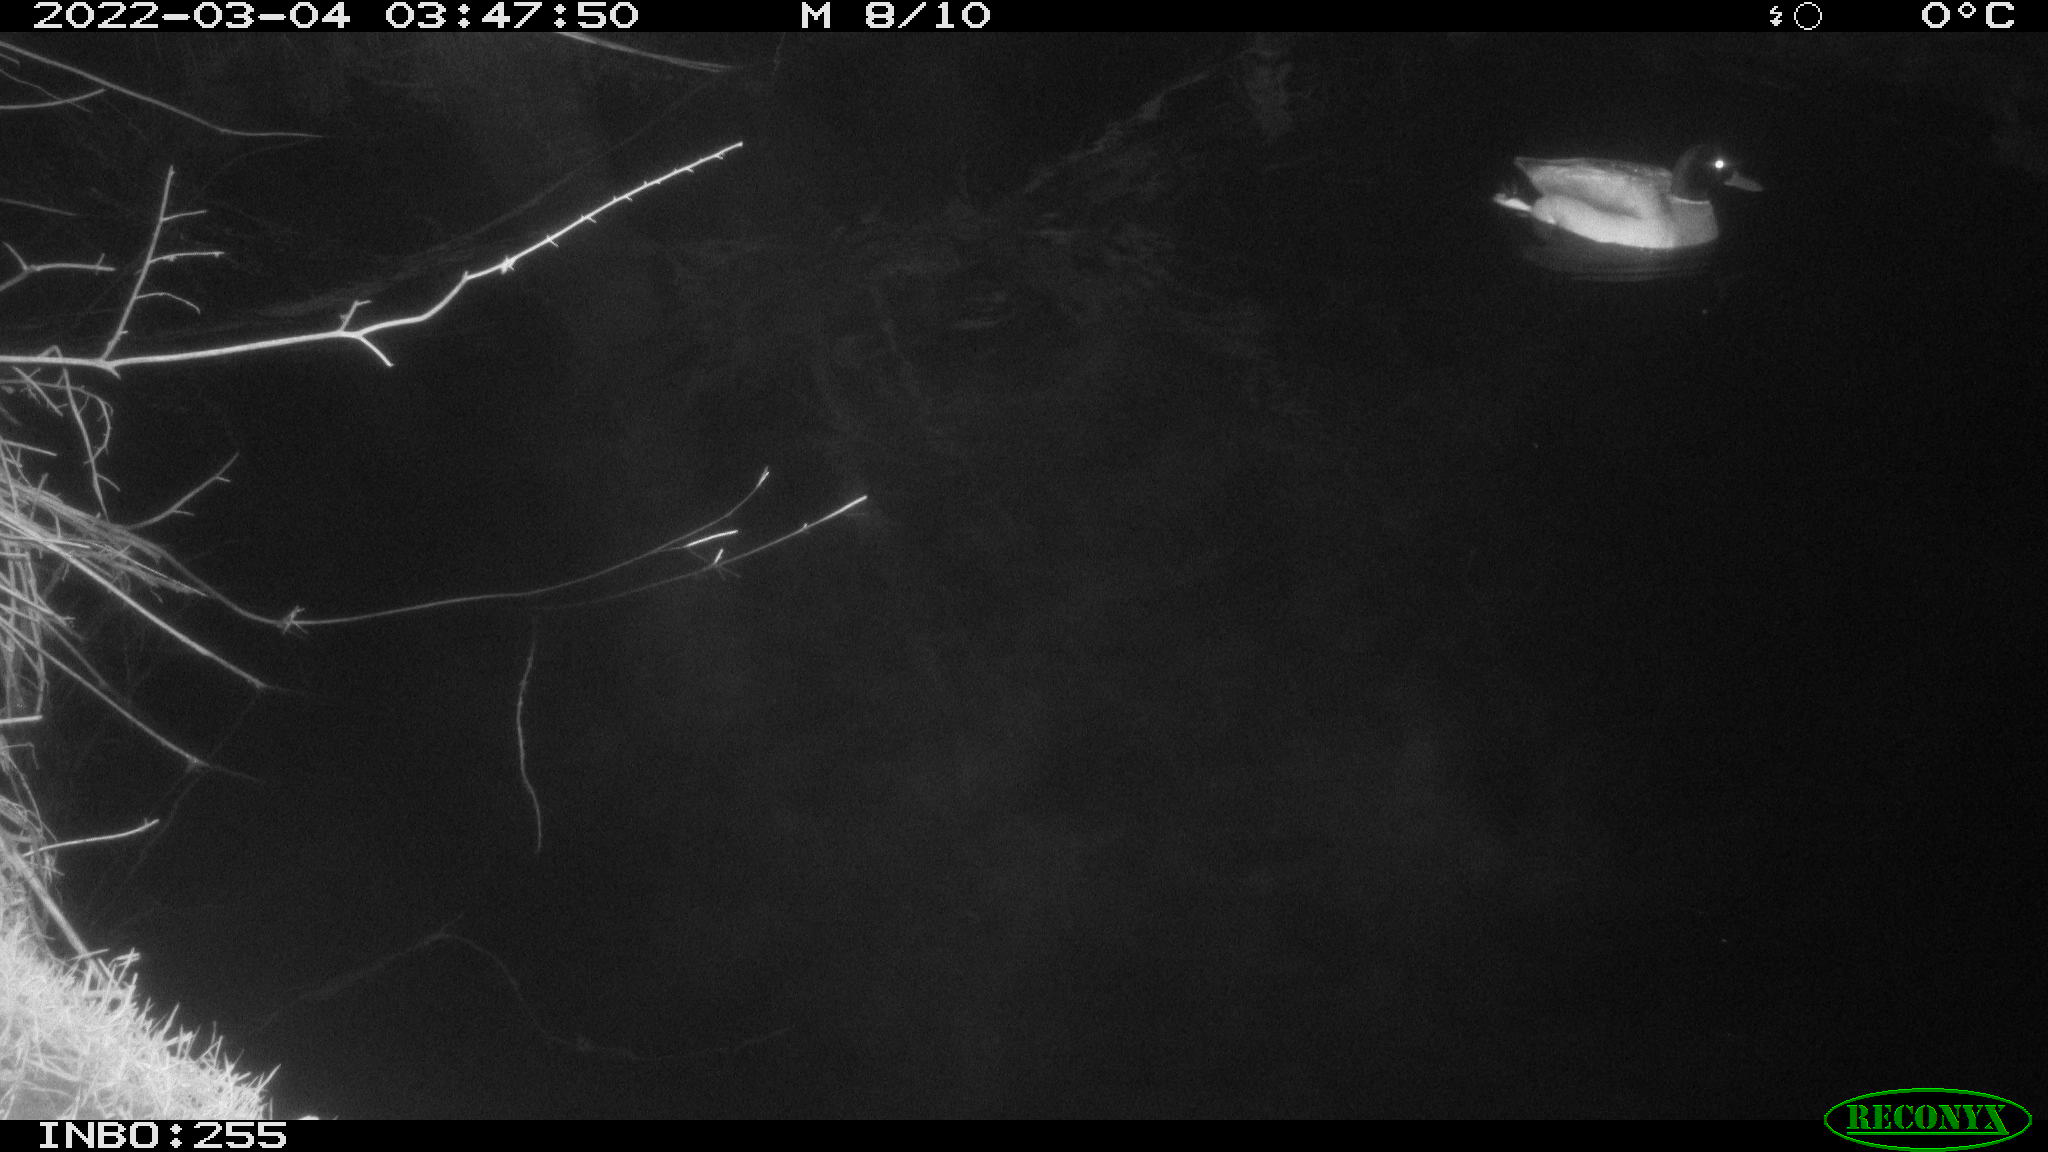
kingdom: Animalia
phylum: Chordata
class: Aves
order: Anseriformes
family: Anatidae
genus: Anas
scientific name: Anas platyrhynchos
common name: Mallard
